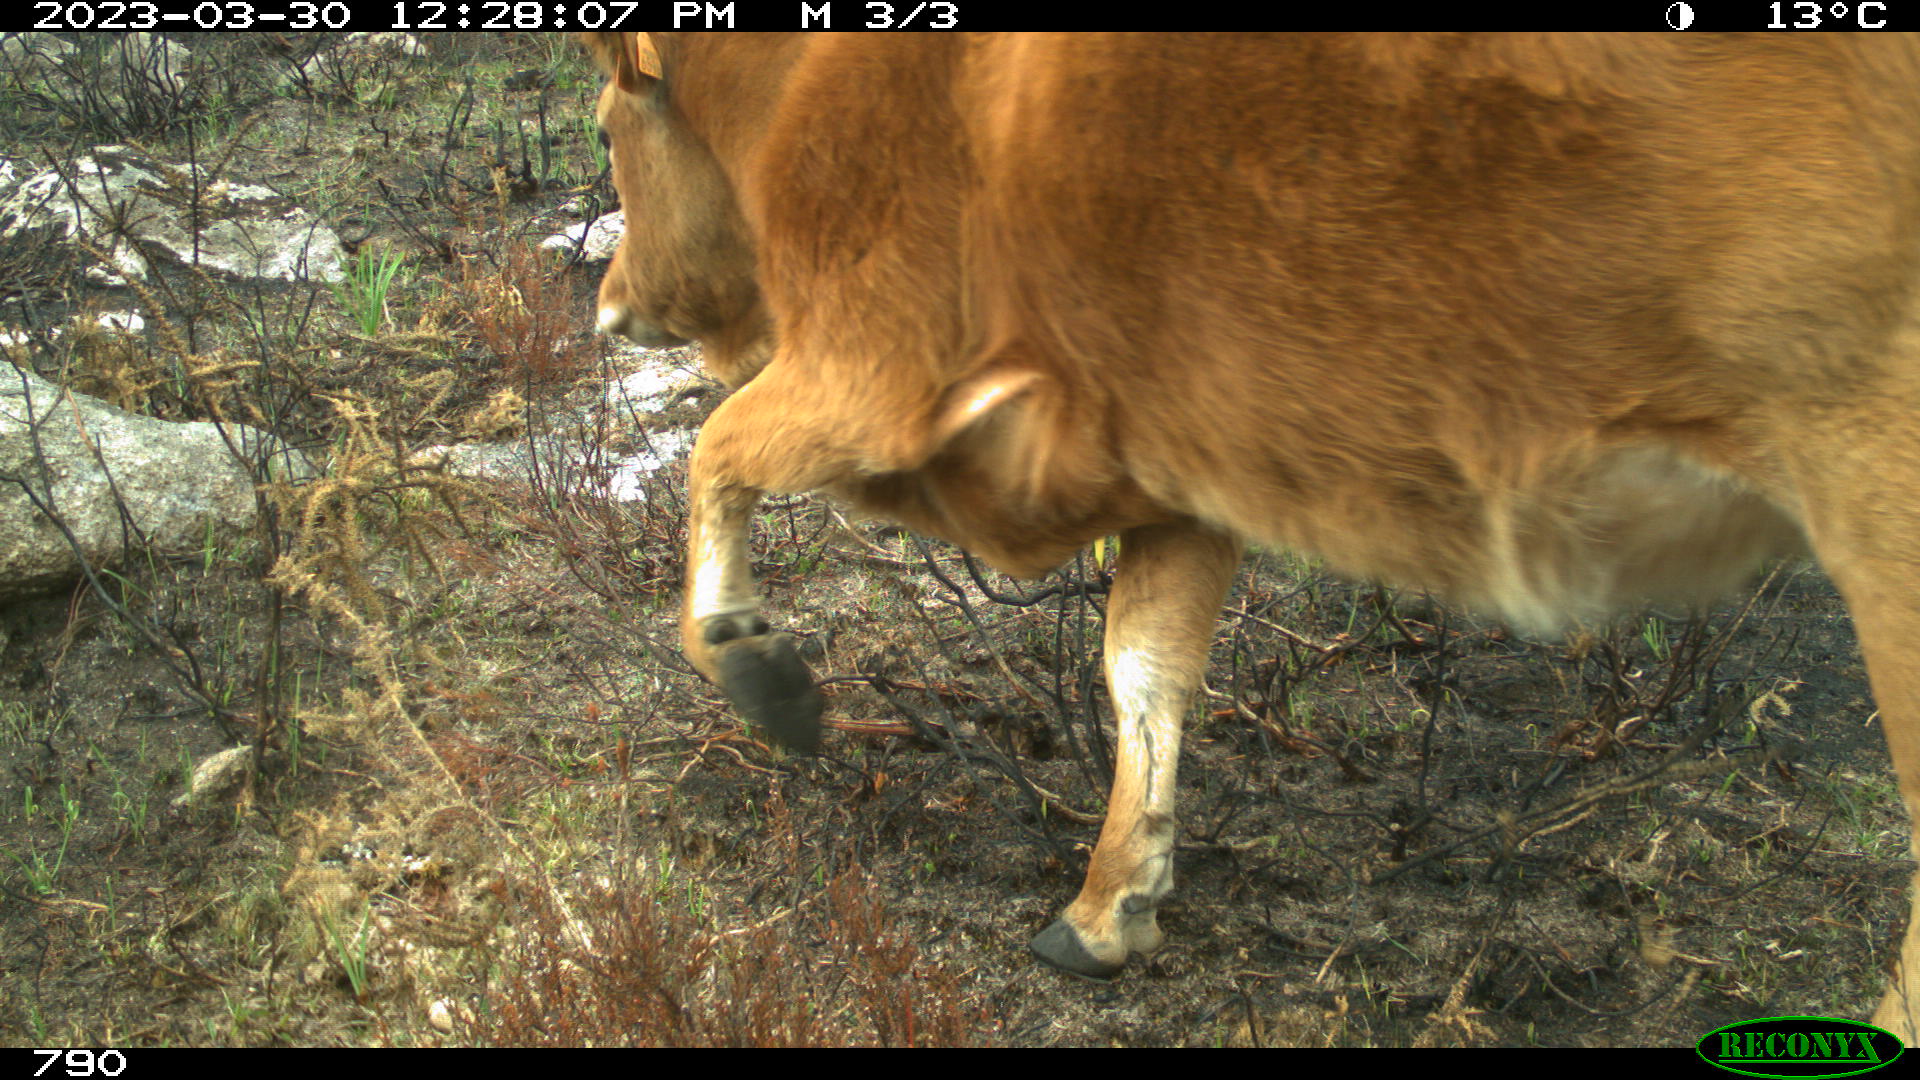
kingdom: Animalia
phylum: Chordata
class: Mammalia
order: Artiodactyla
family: Bovidae
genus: Bos
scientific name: Bos taurus
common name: Domesticated cattle
